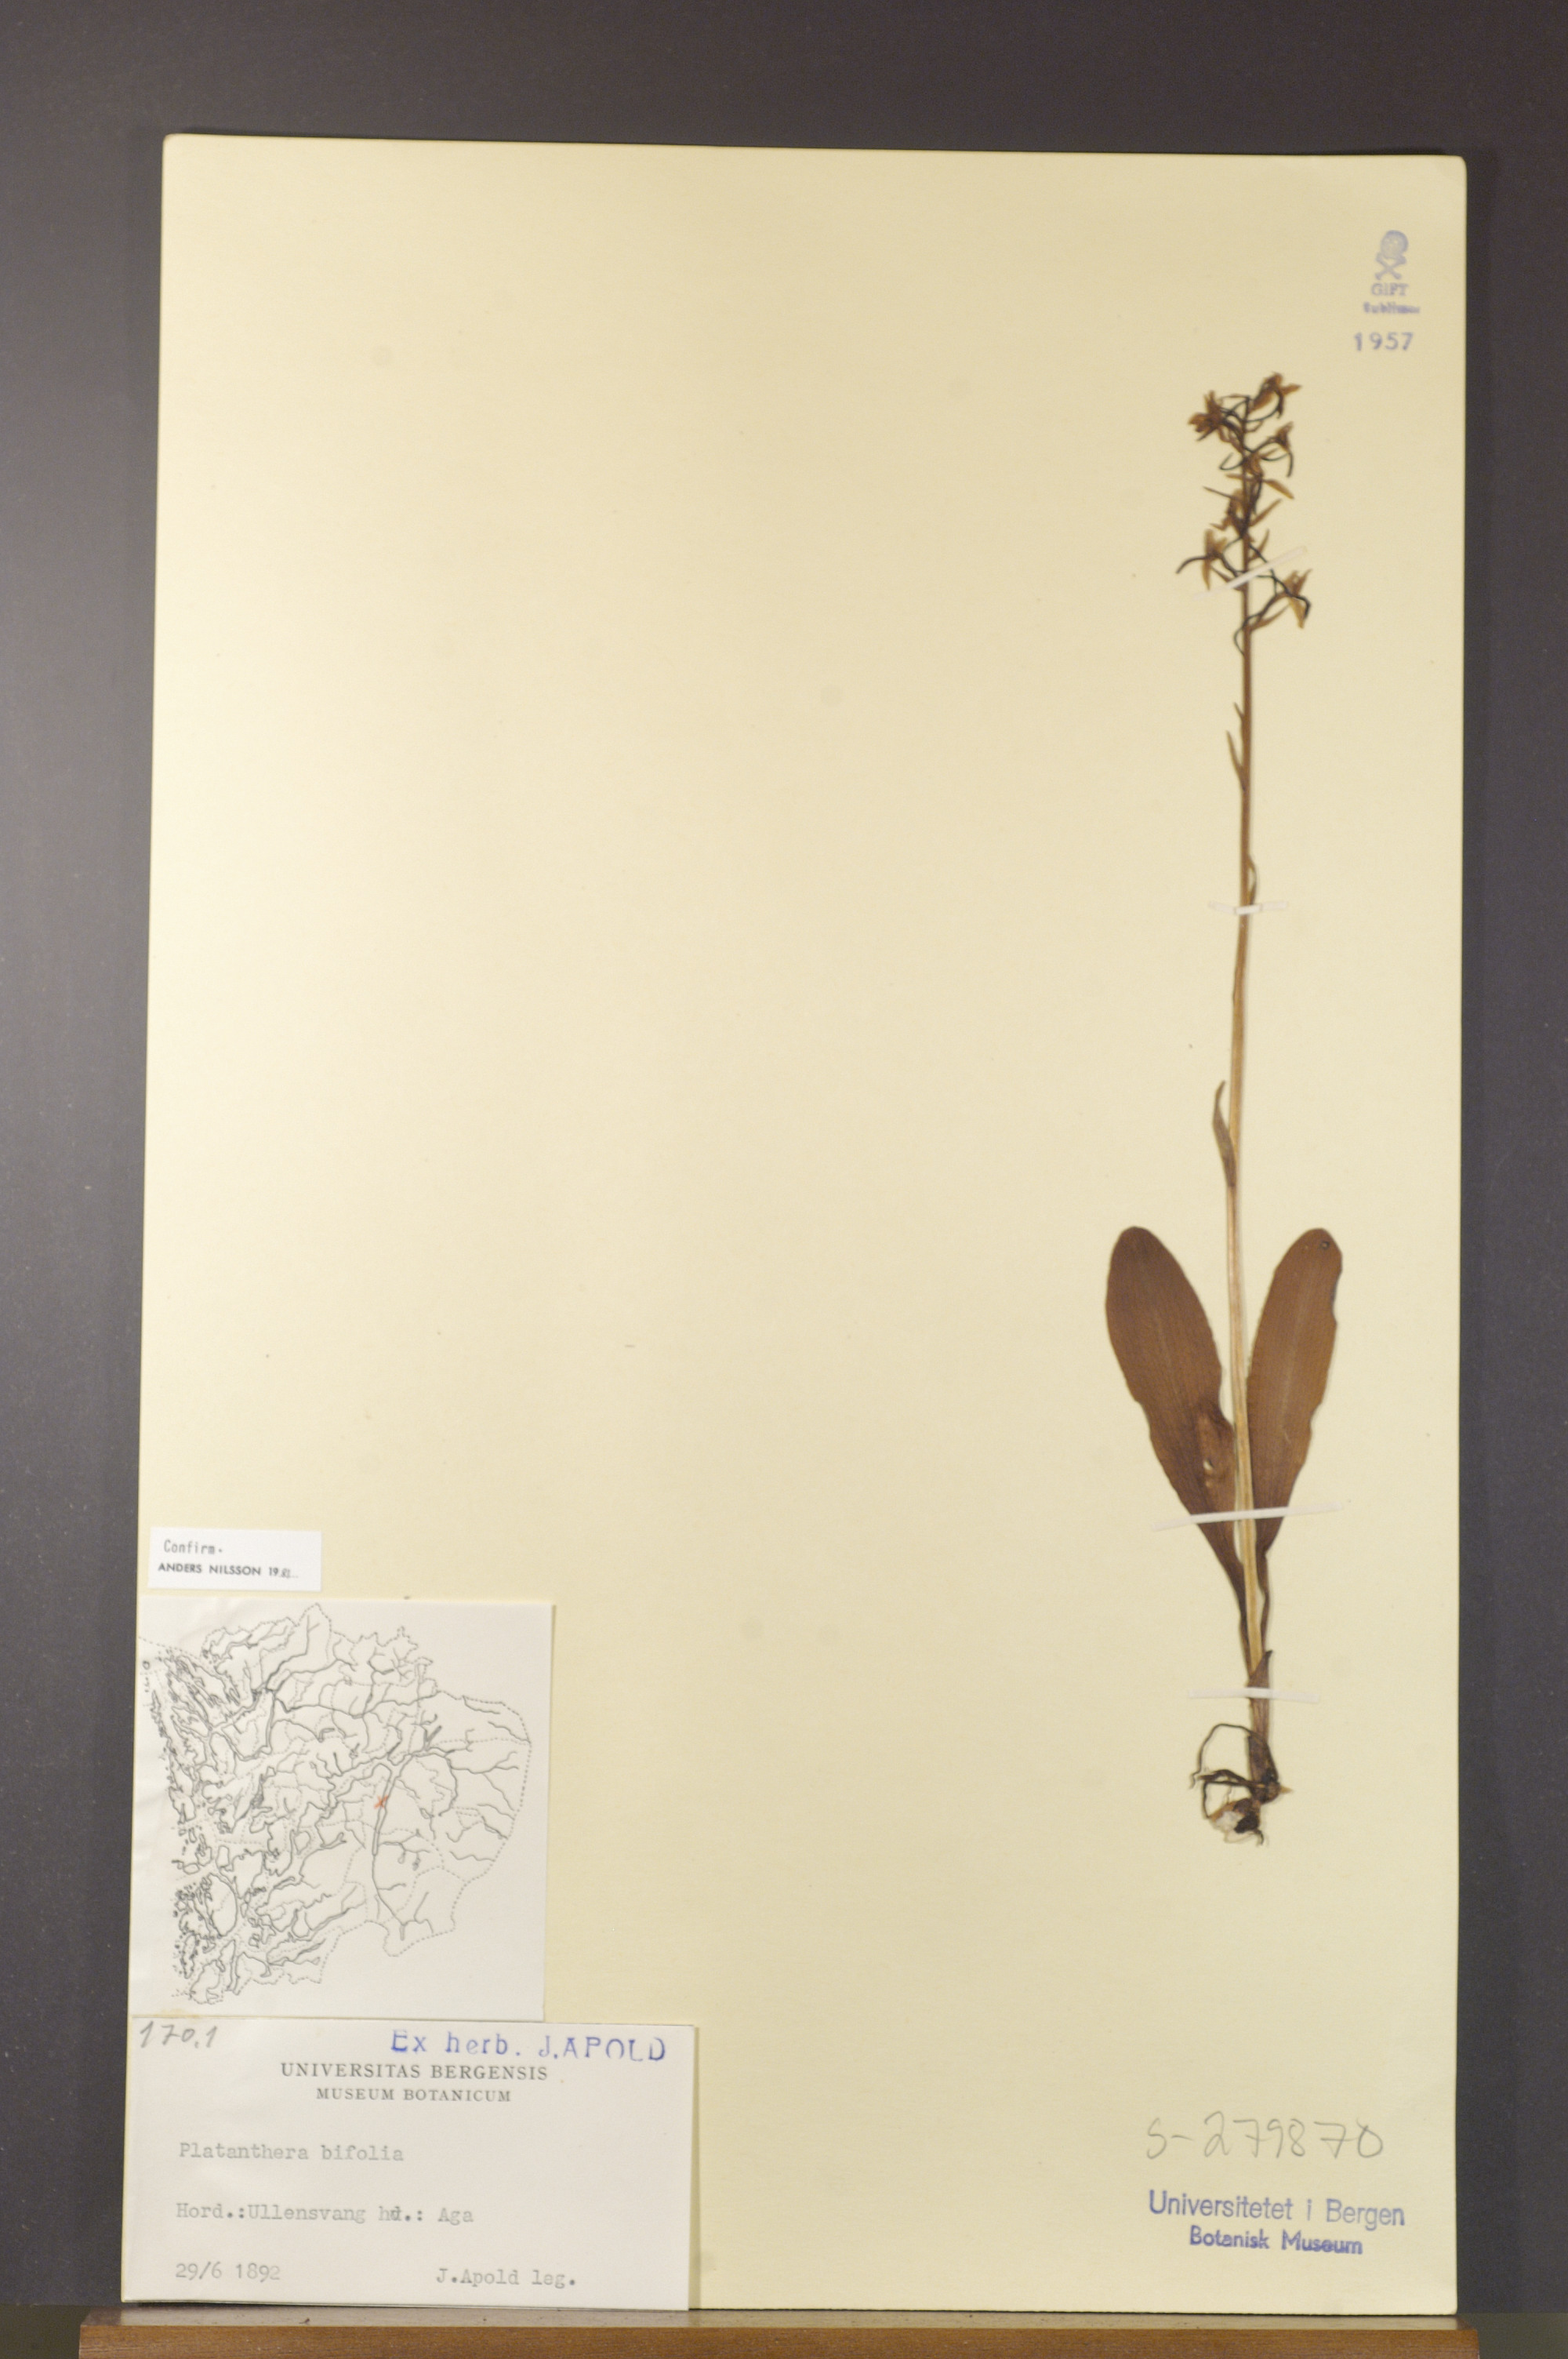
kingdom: Plantae
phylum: Tracheophyta
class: Liliopsida
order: Asparagales
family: Orchidaceae
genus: Platanthera
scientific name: Platanthera bifolia
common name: Lesser butterfly-orchid
